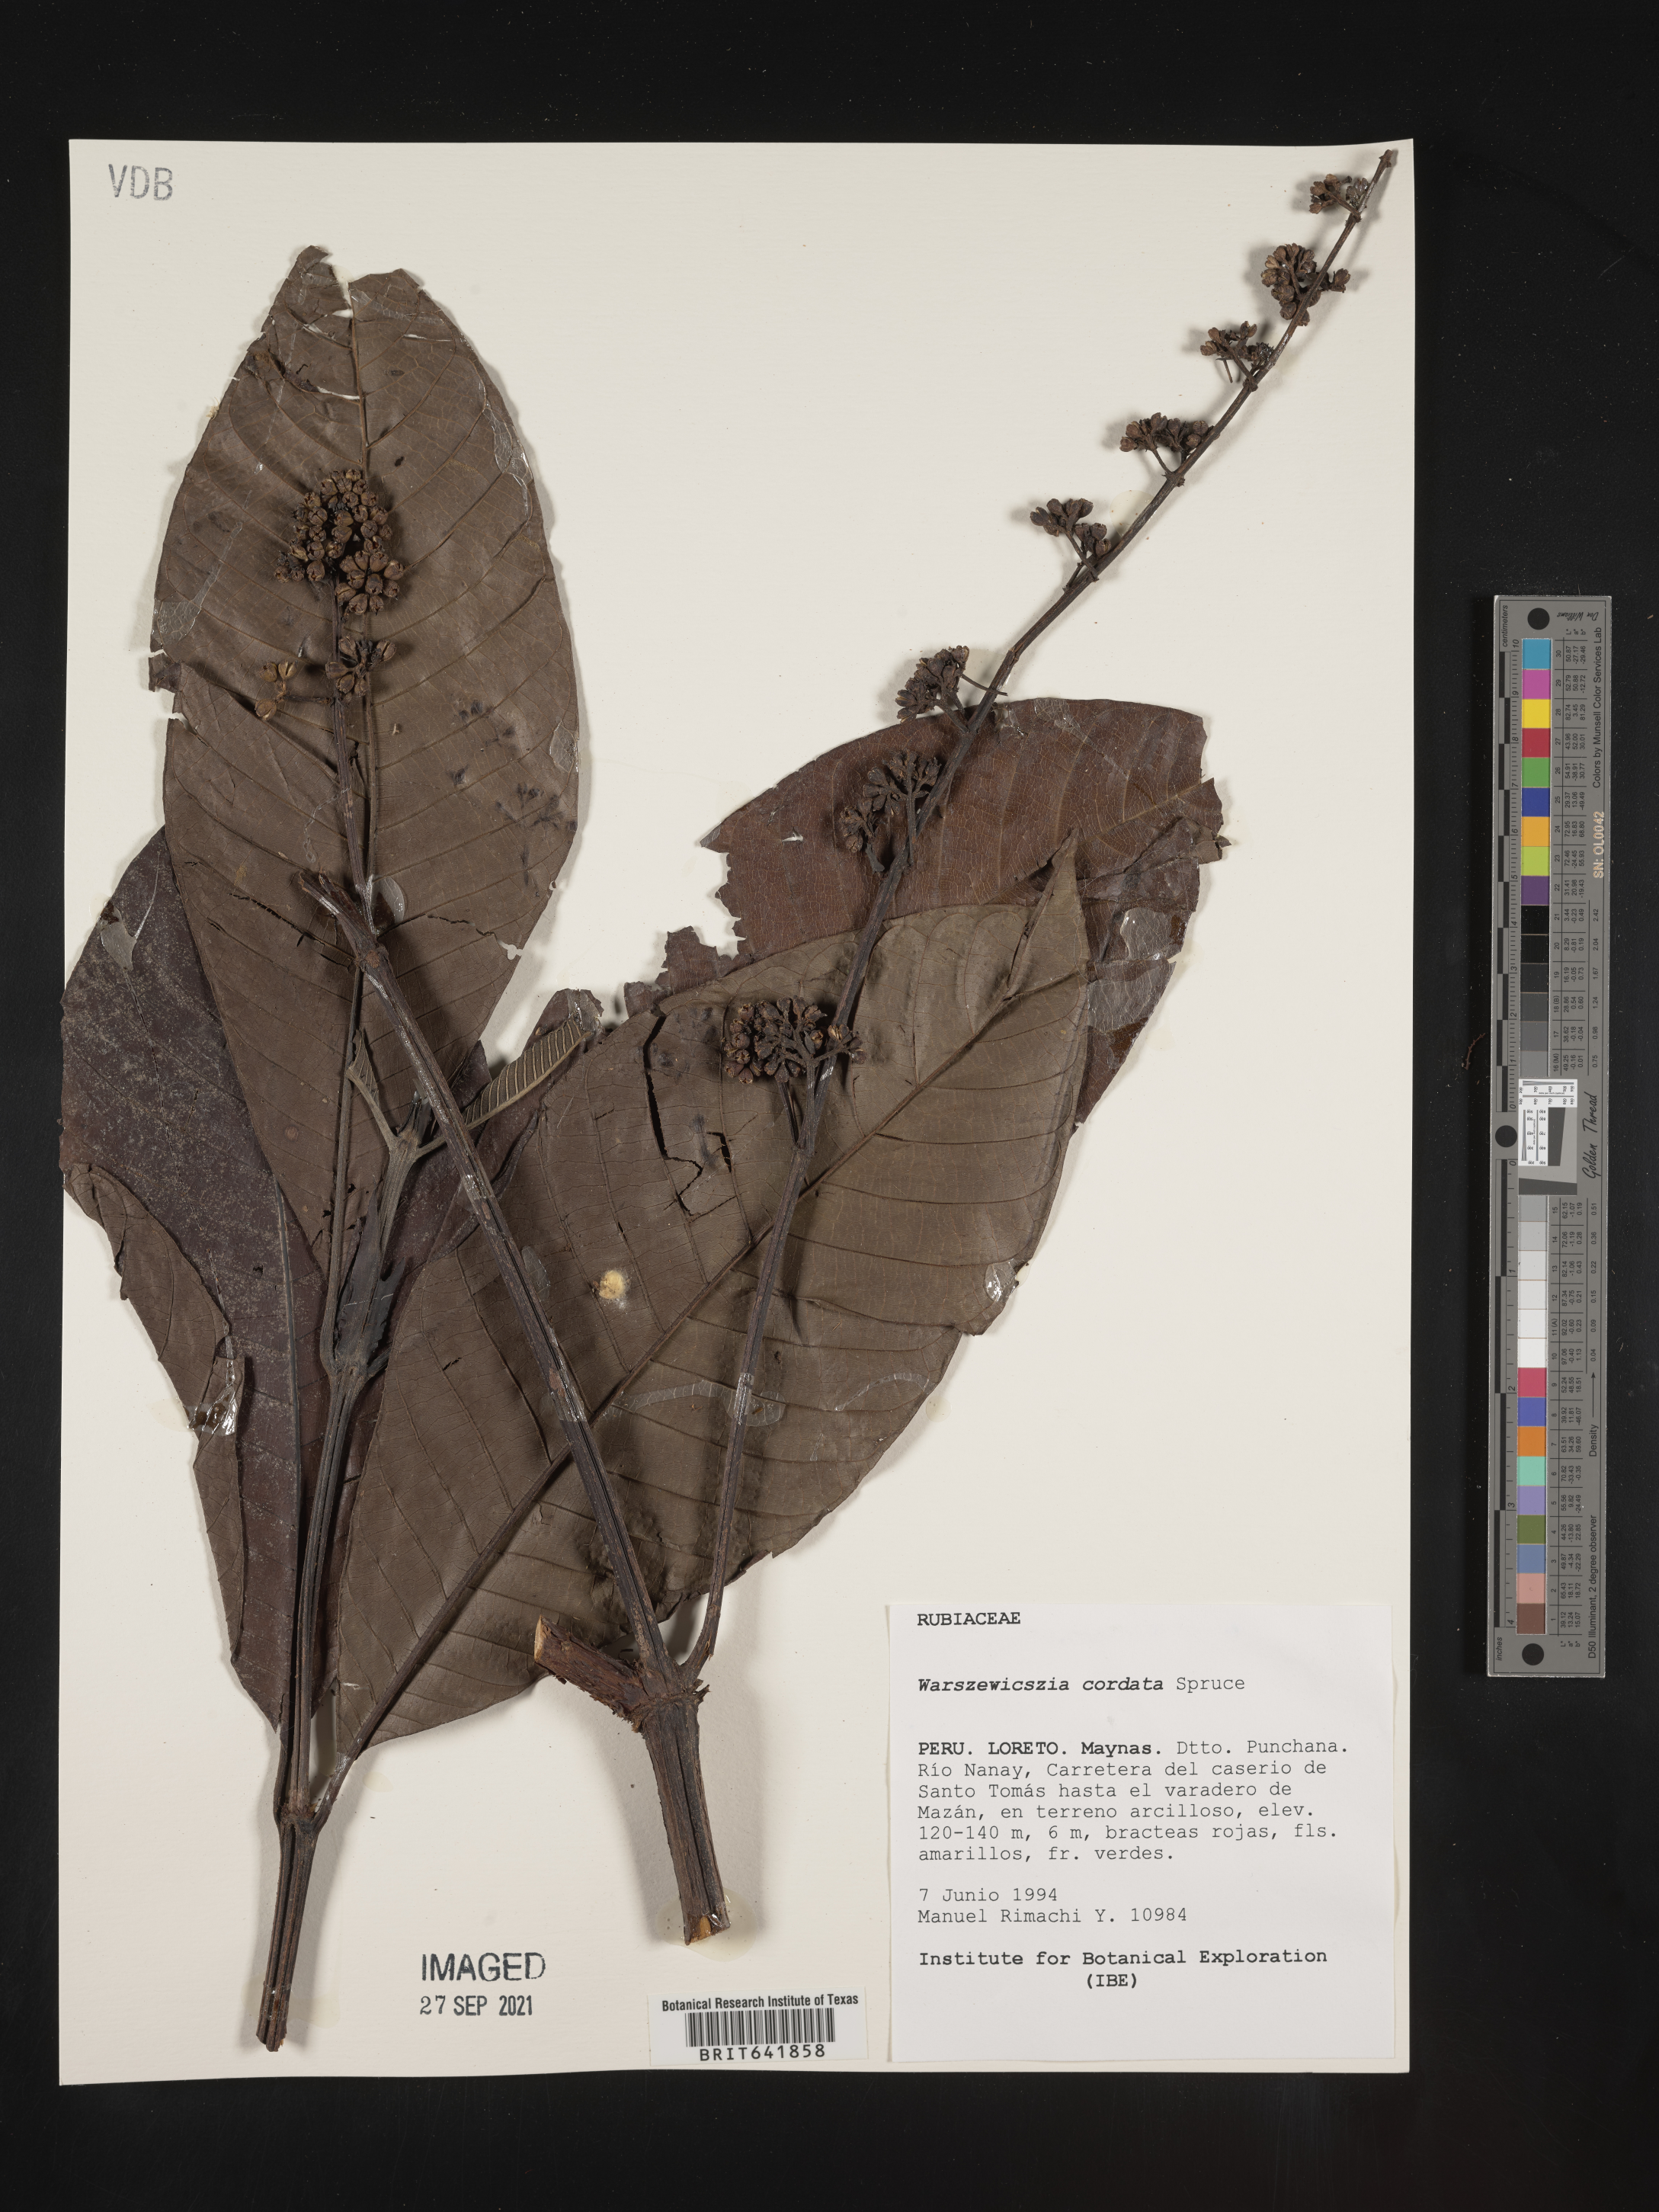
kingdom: Plantae
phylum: Tracheophyta
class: Magnoliopsida
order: Gentianales
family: Rubiaceae
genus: Warszewiczia
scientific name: Warszewiczia
